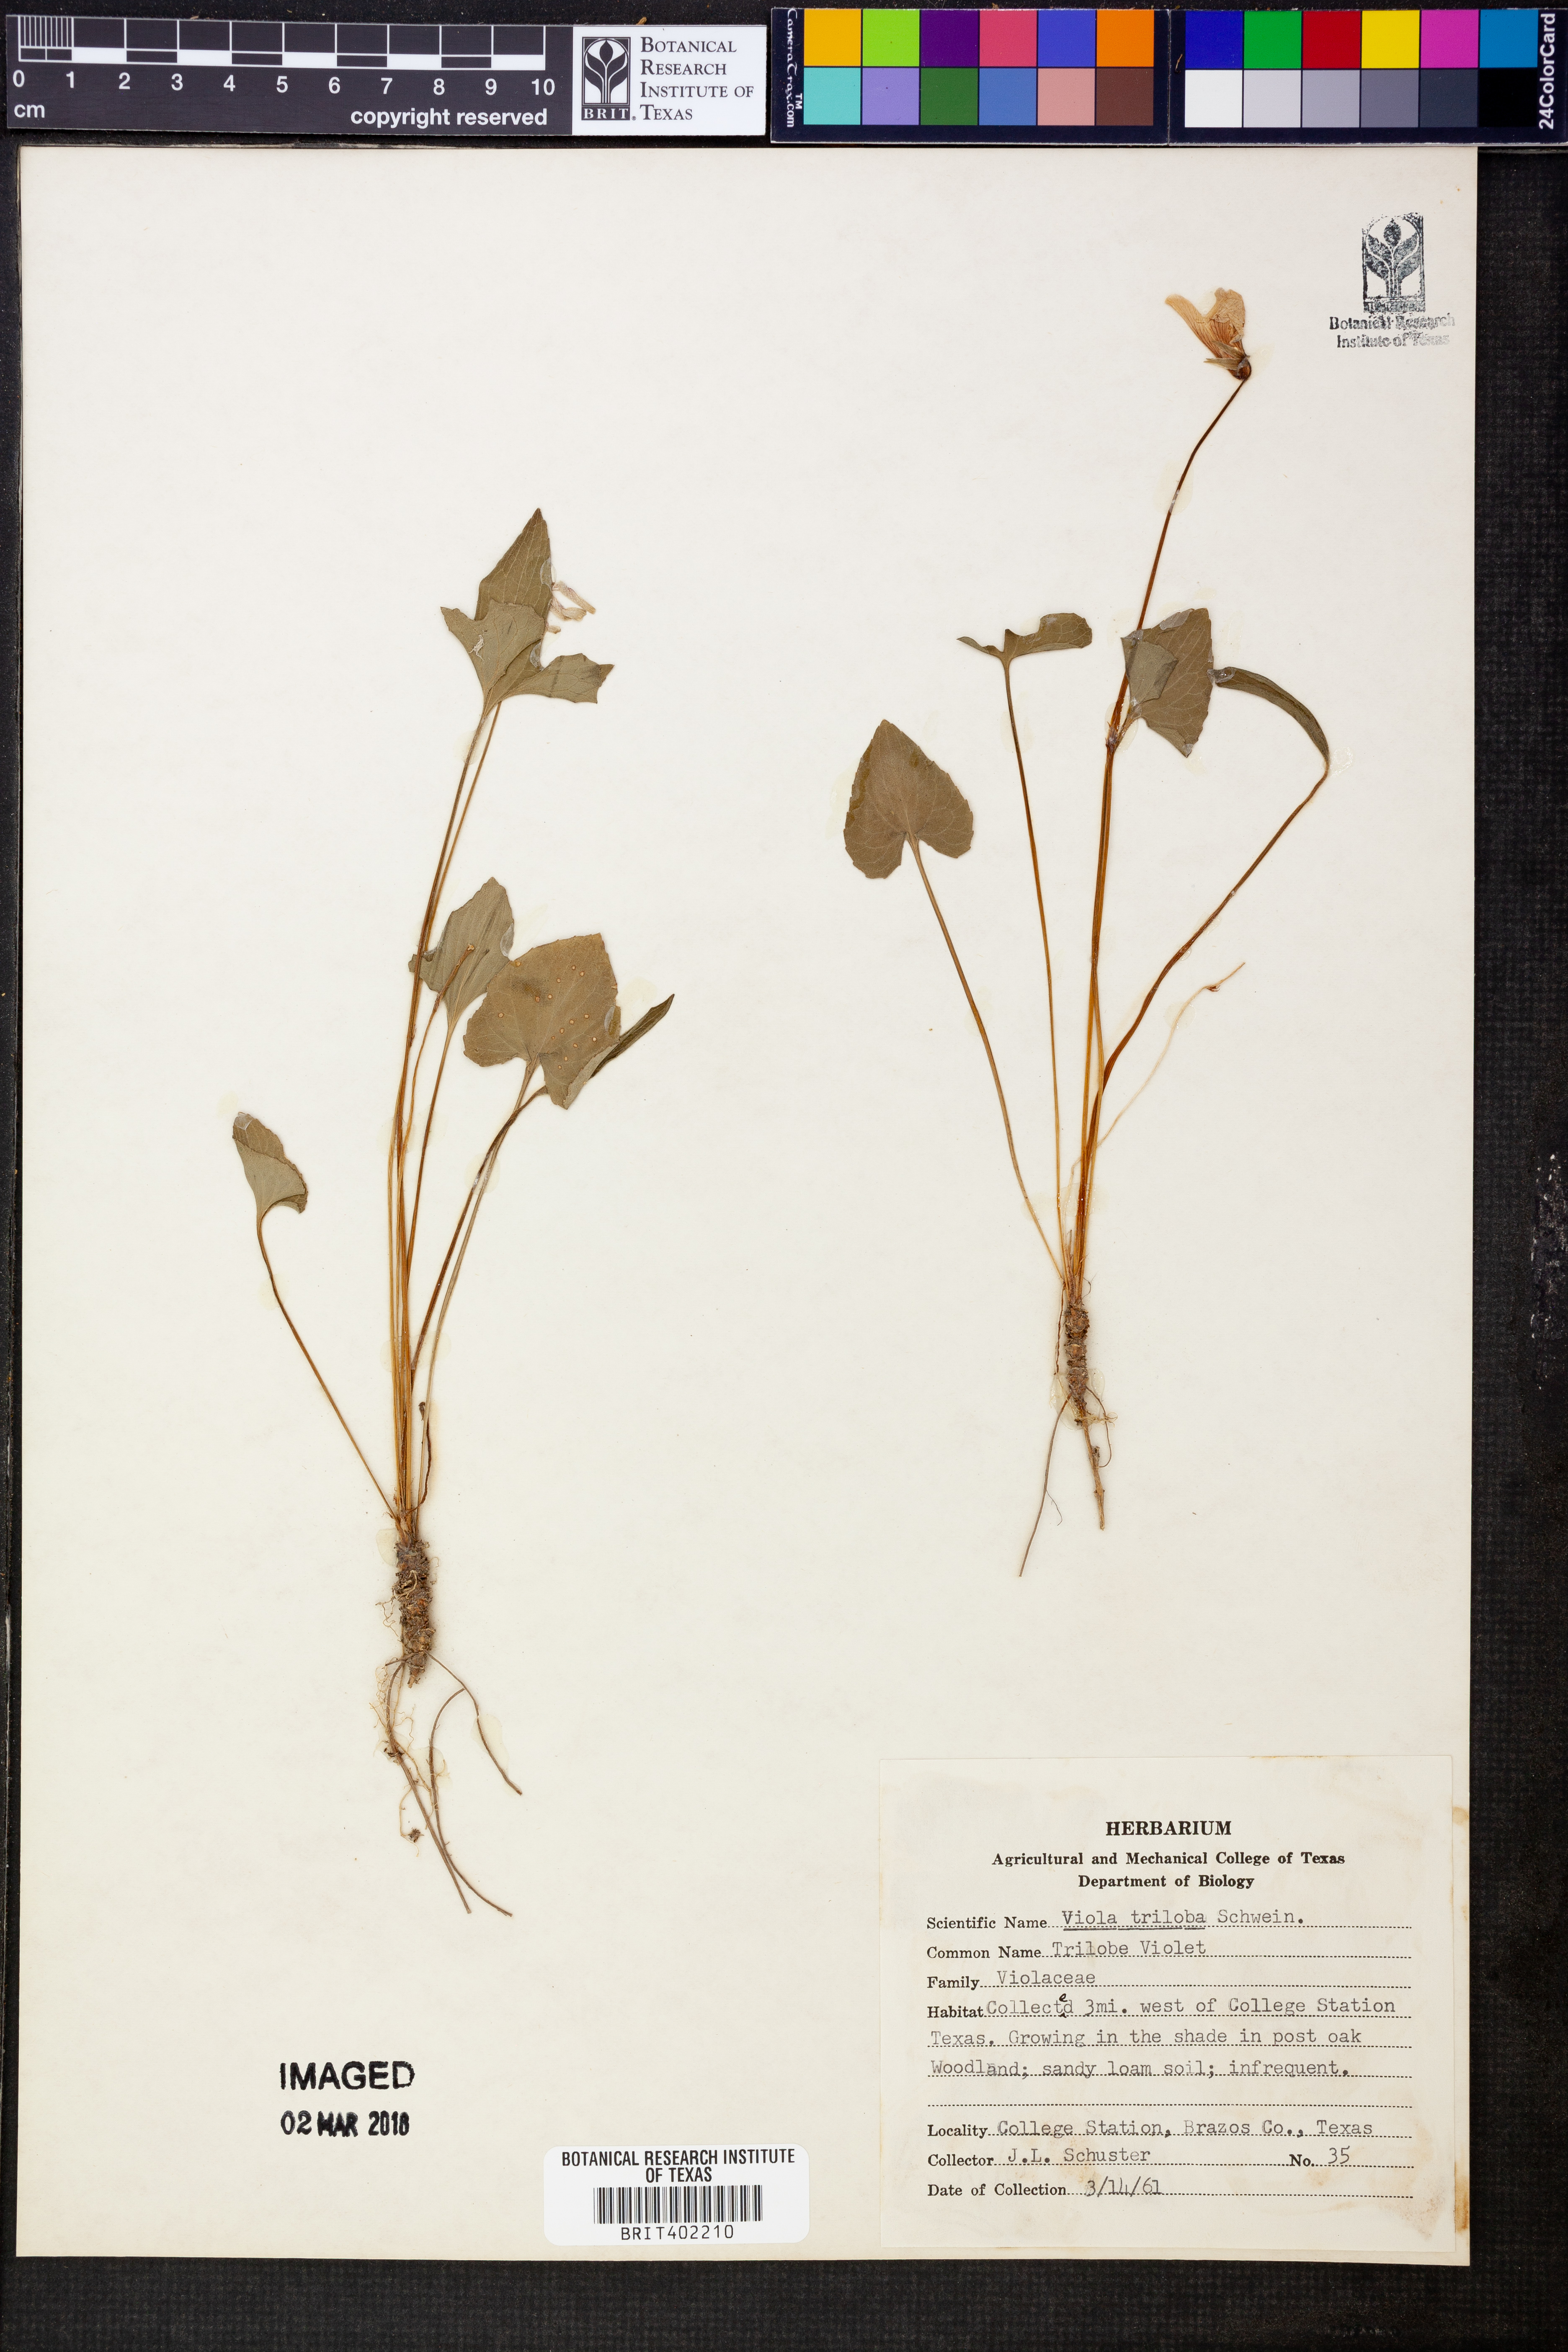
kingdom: Plantae
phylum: Tracheophyta
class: Magnoliopsida
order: Malpighiales
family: Violaceae
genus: Viola
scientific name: Viola palmata
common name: Early blue violet
